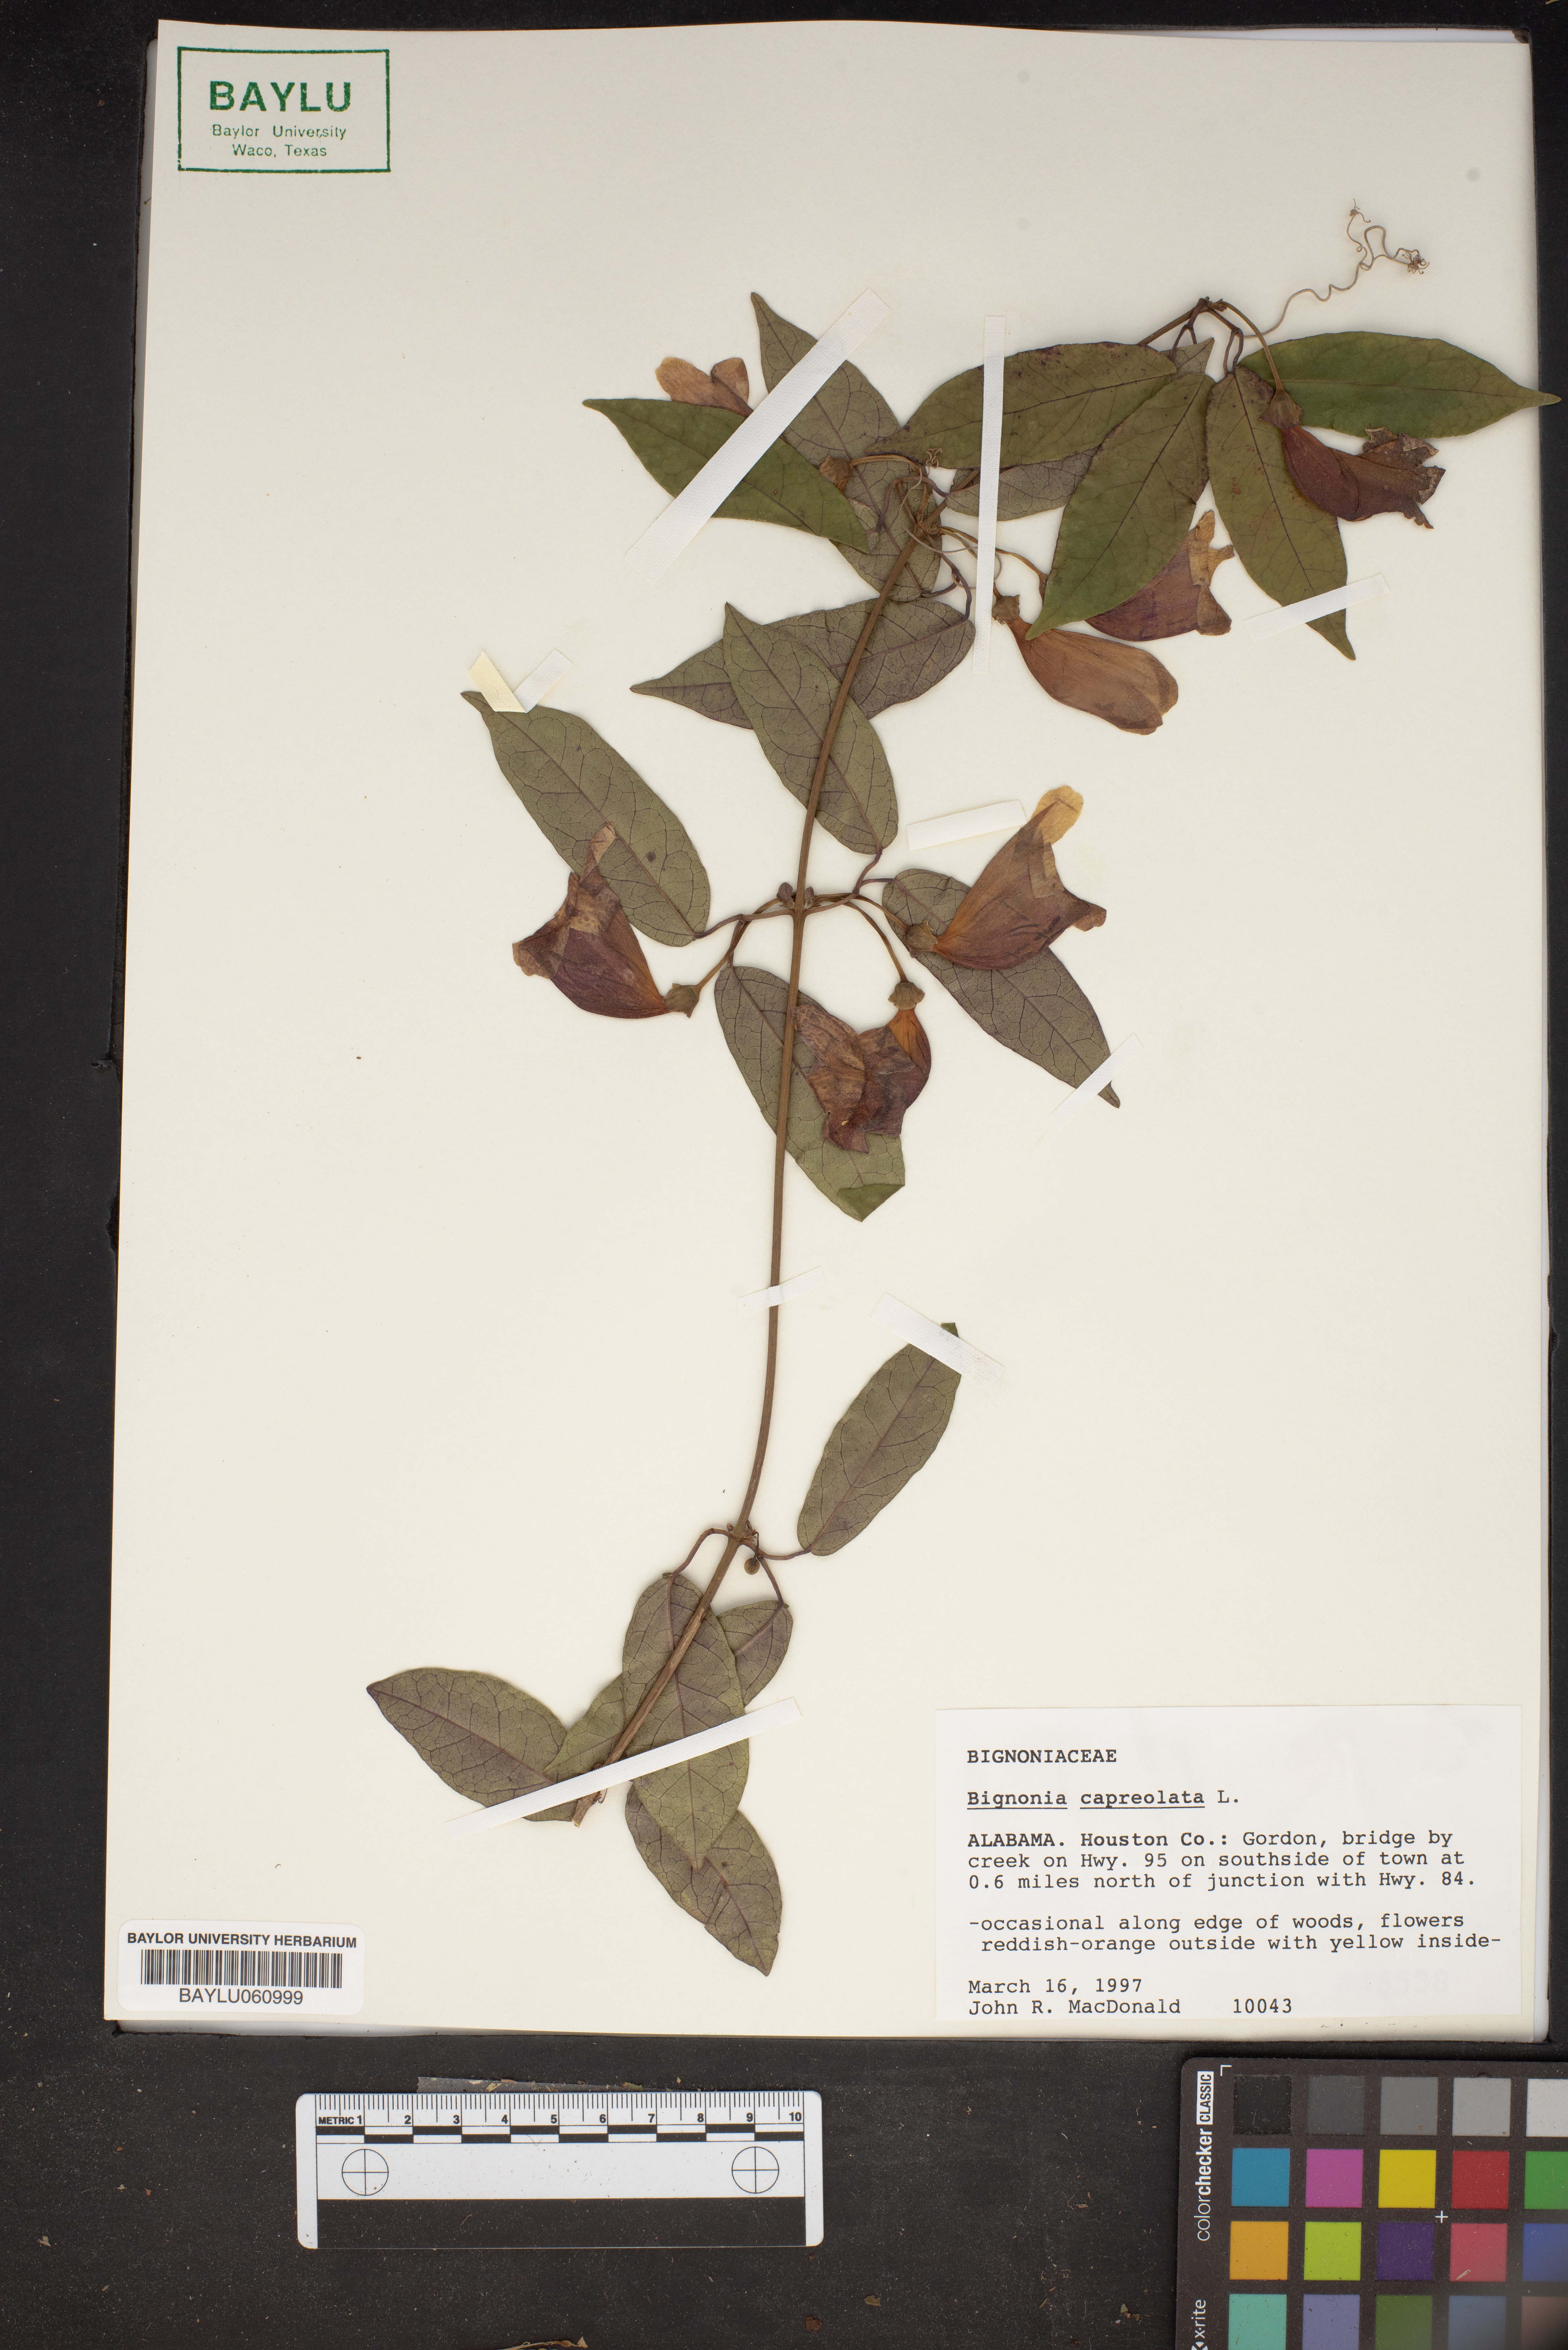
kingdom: Plantae
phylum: Tracheophyta
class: Magnoliopsida
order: Lamiales
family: Bignoniaceae
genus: Bignonia
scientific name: Bignonia capreolata
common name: Crossvine
